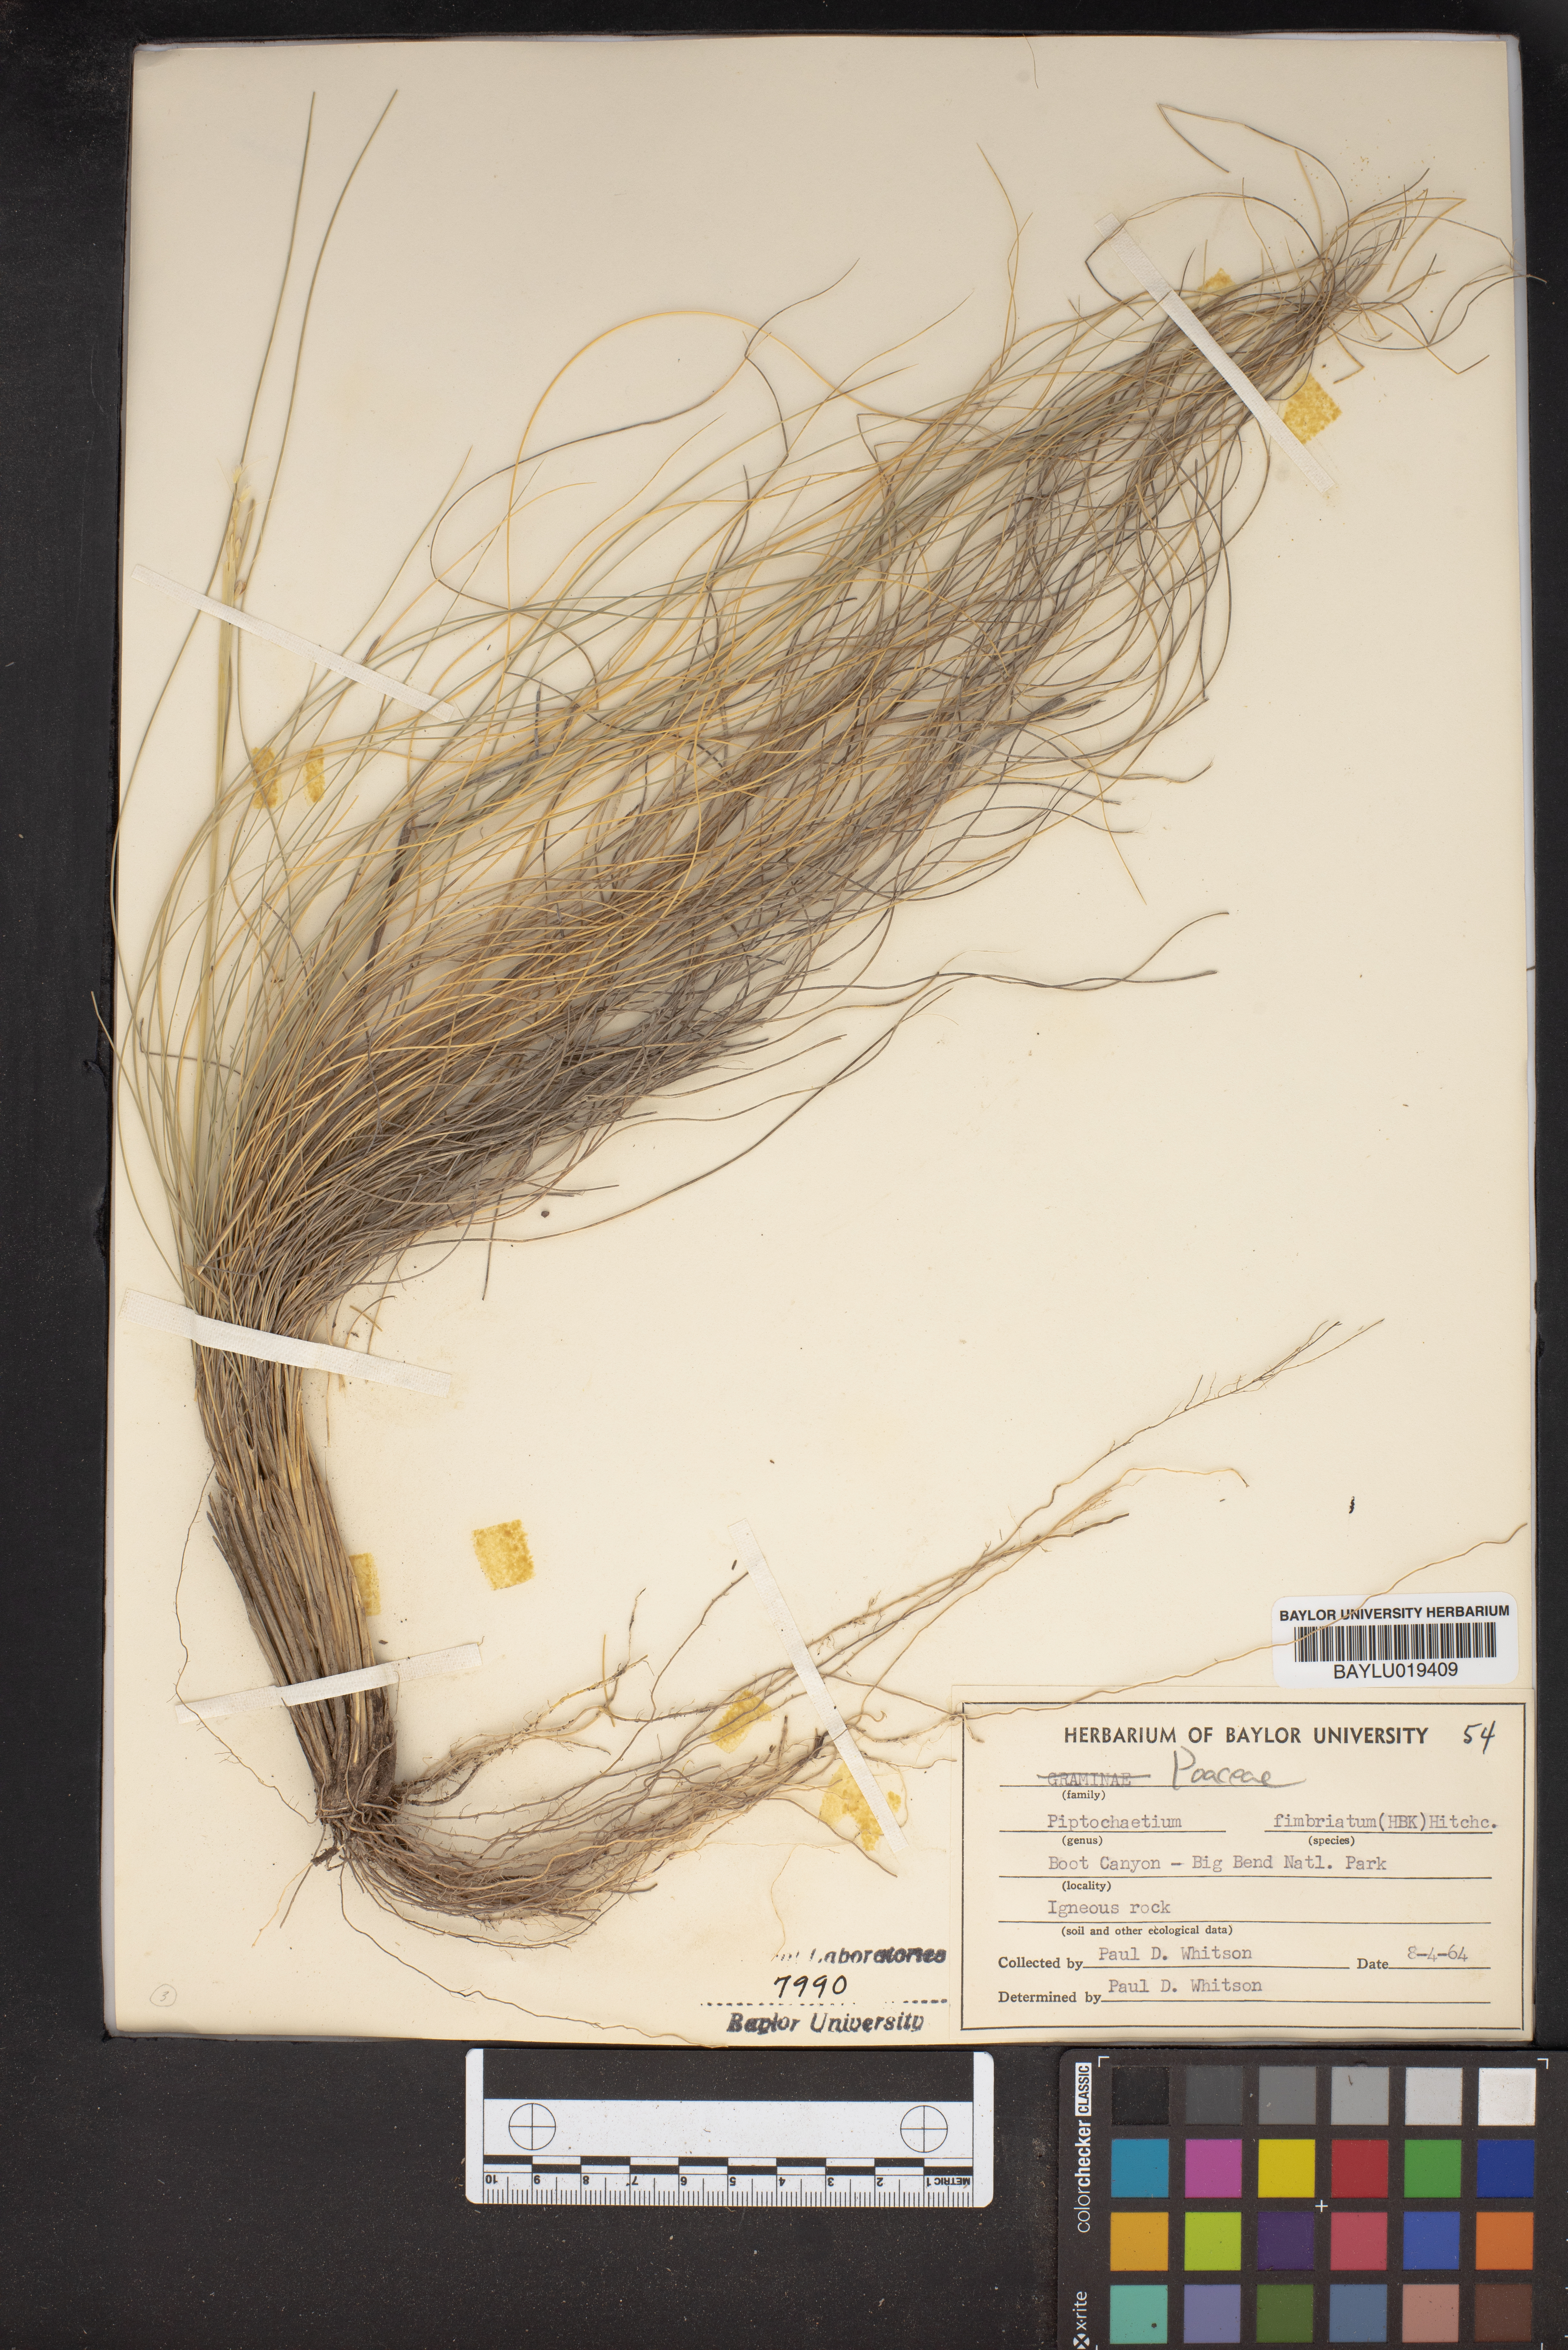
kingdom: Plantae
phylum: Tracheophyta
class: Liliopsida
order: Poales
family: Poaceae
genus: Piptochaetium
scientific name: Piptochaetium fimbriatum
